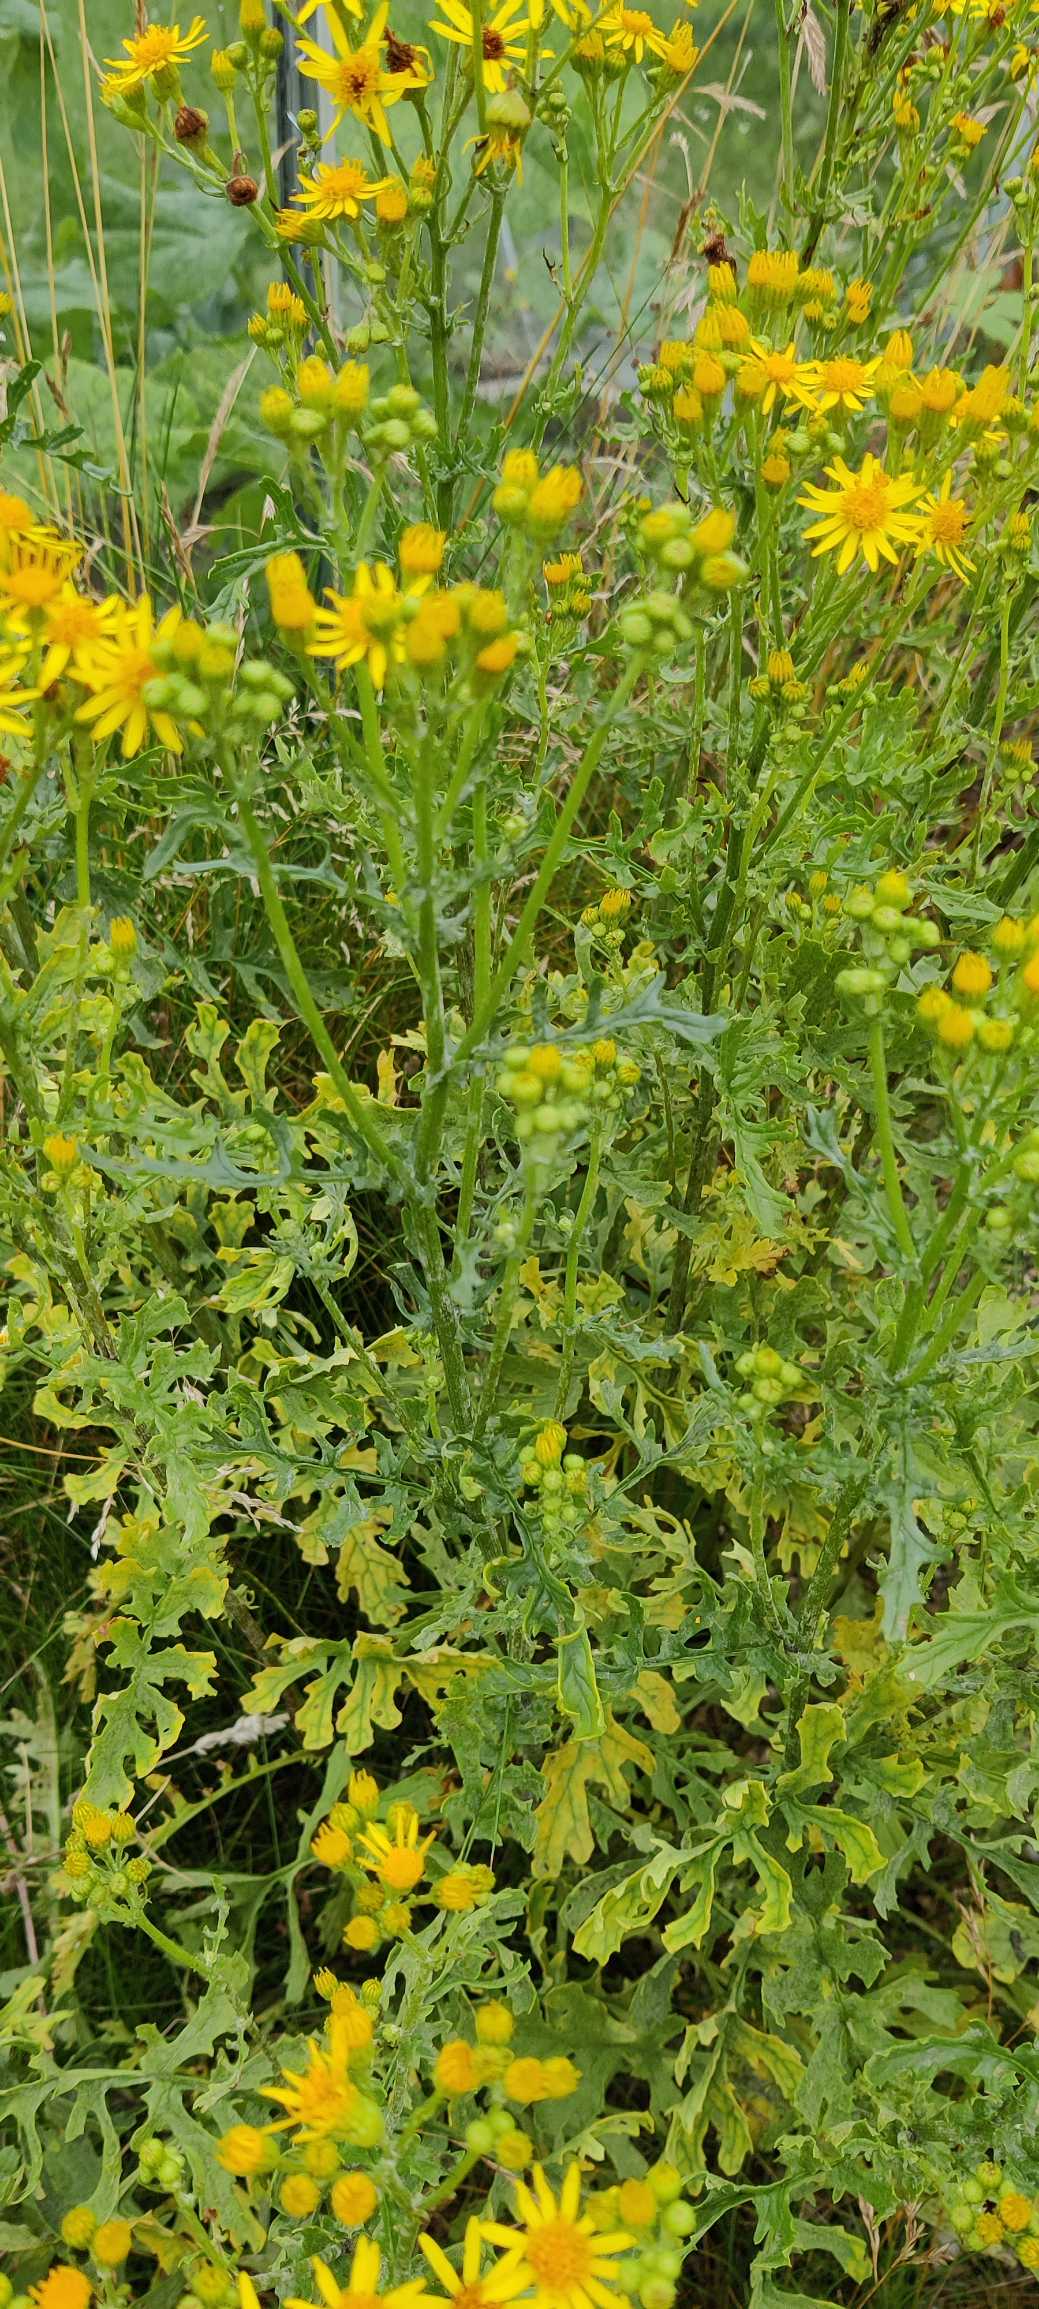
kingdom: Plantae
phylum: Tracheophyta
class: Magnoliopsida
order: Asterales
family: Asteraceae
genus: Jacobaea
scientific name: Jacobaea vulgaris
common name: Eng-brandbæger
